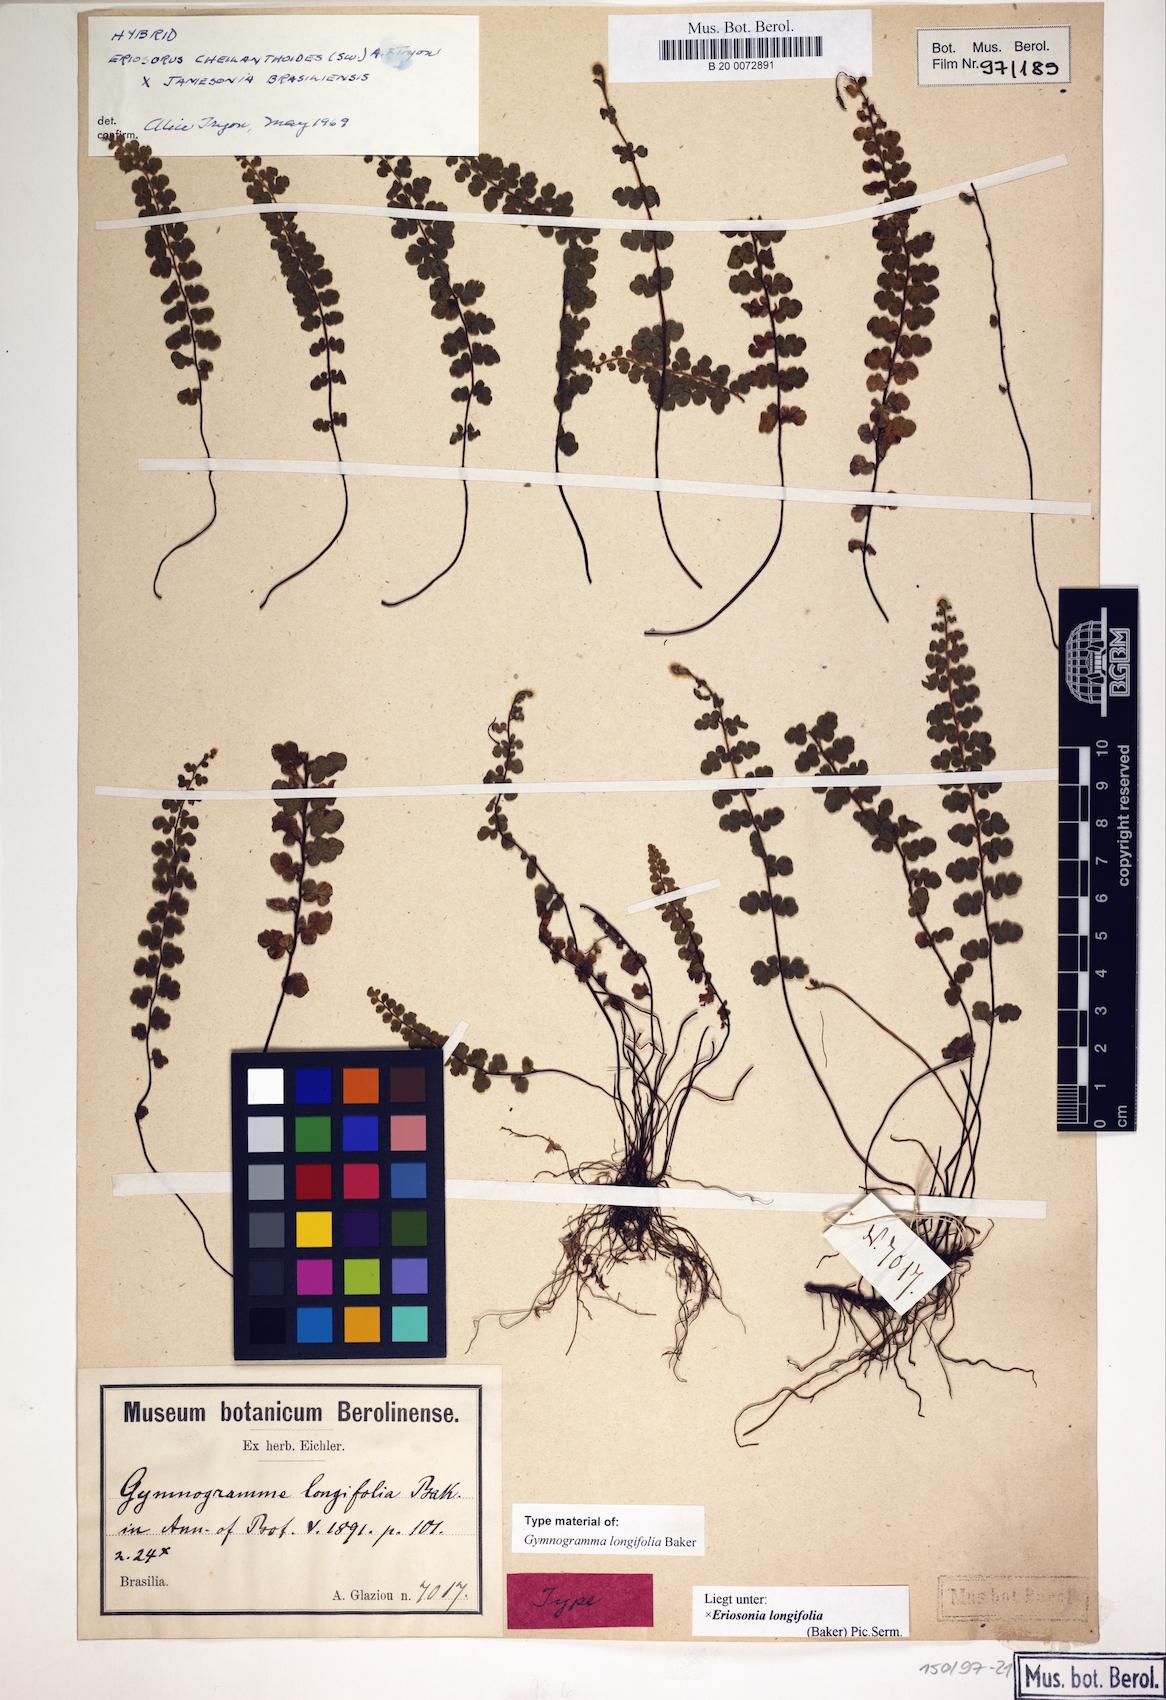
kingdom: Plantae
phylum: Tracheophyta
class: Polypodiopsida
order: Polypodiales
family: Pteridaceae
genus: Jamesonia
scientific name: Jamesonia longifolia
